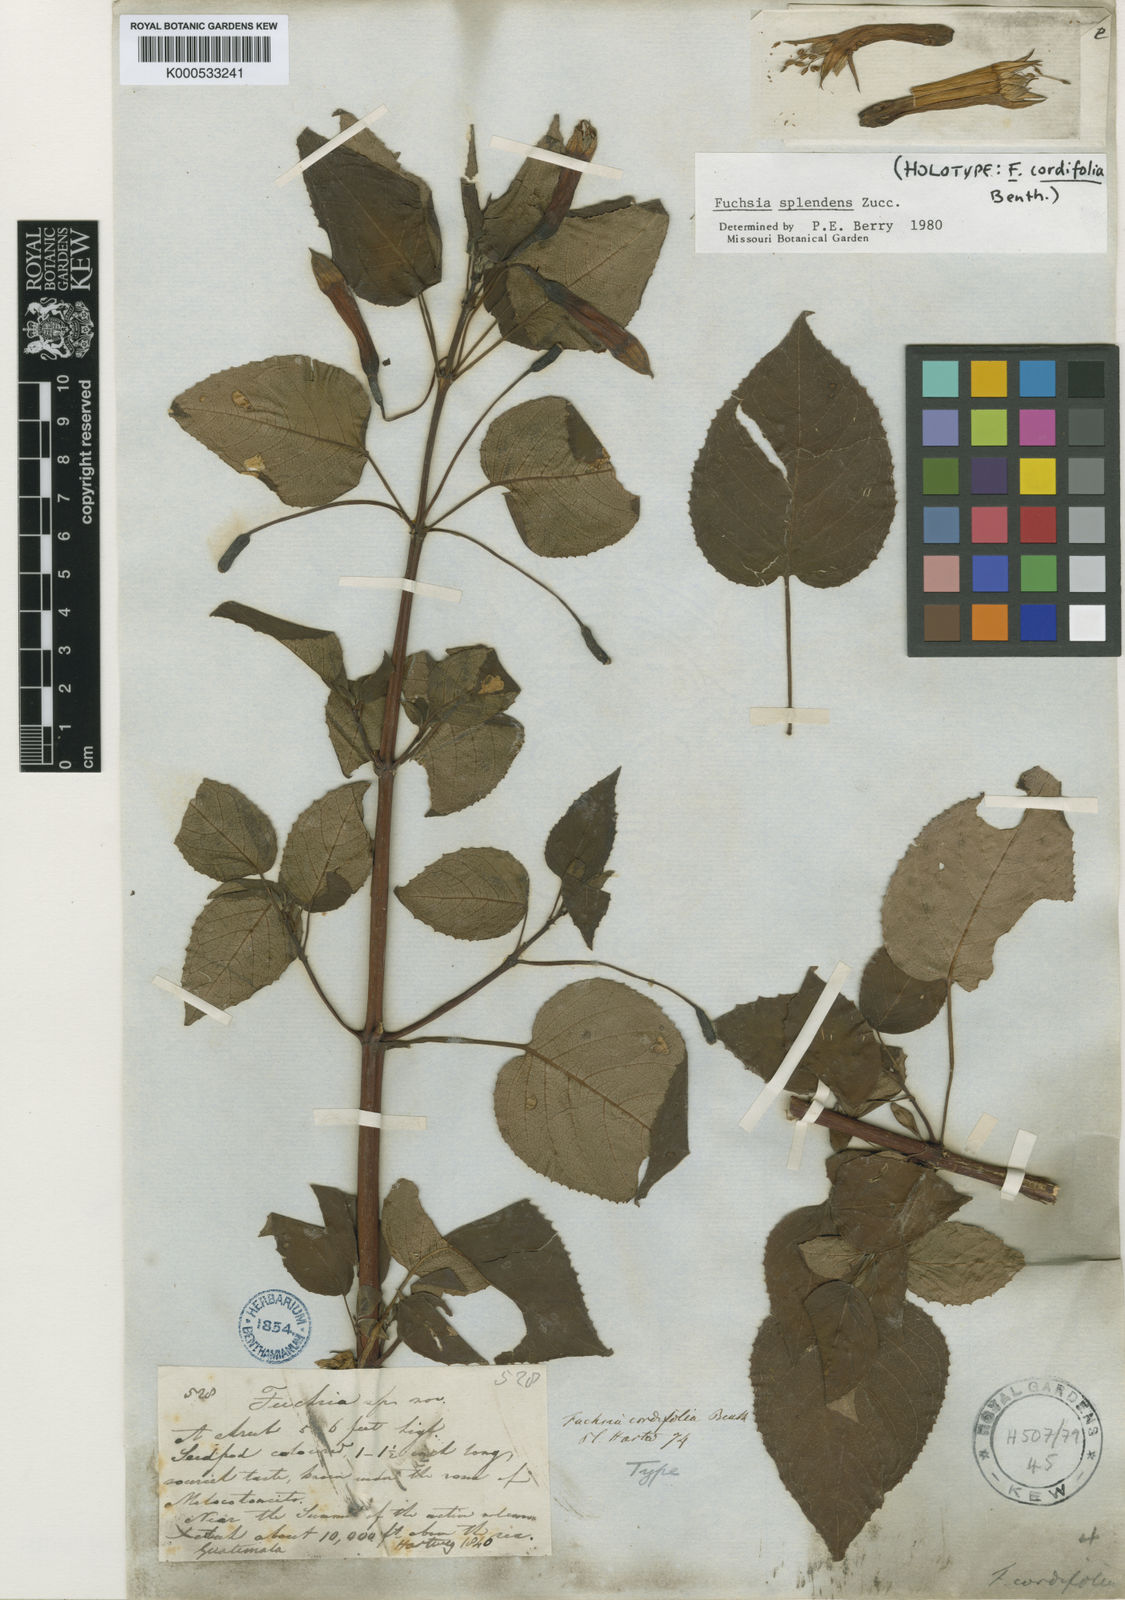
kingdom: Plantae
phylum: Tracheophyta
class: Magnoliopsida
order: Myrtales
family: Onagraceae
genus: Fuchsia
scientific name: Fuchsia splendens
